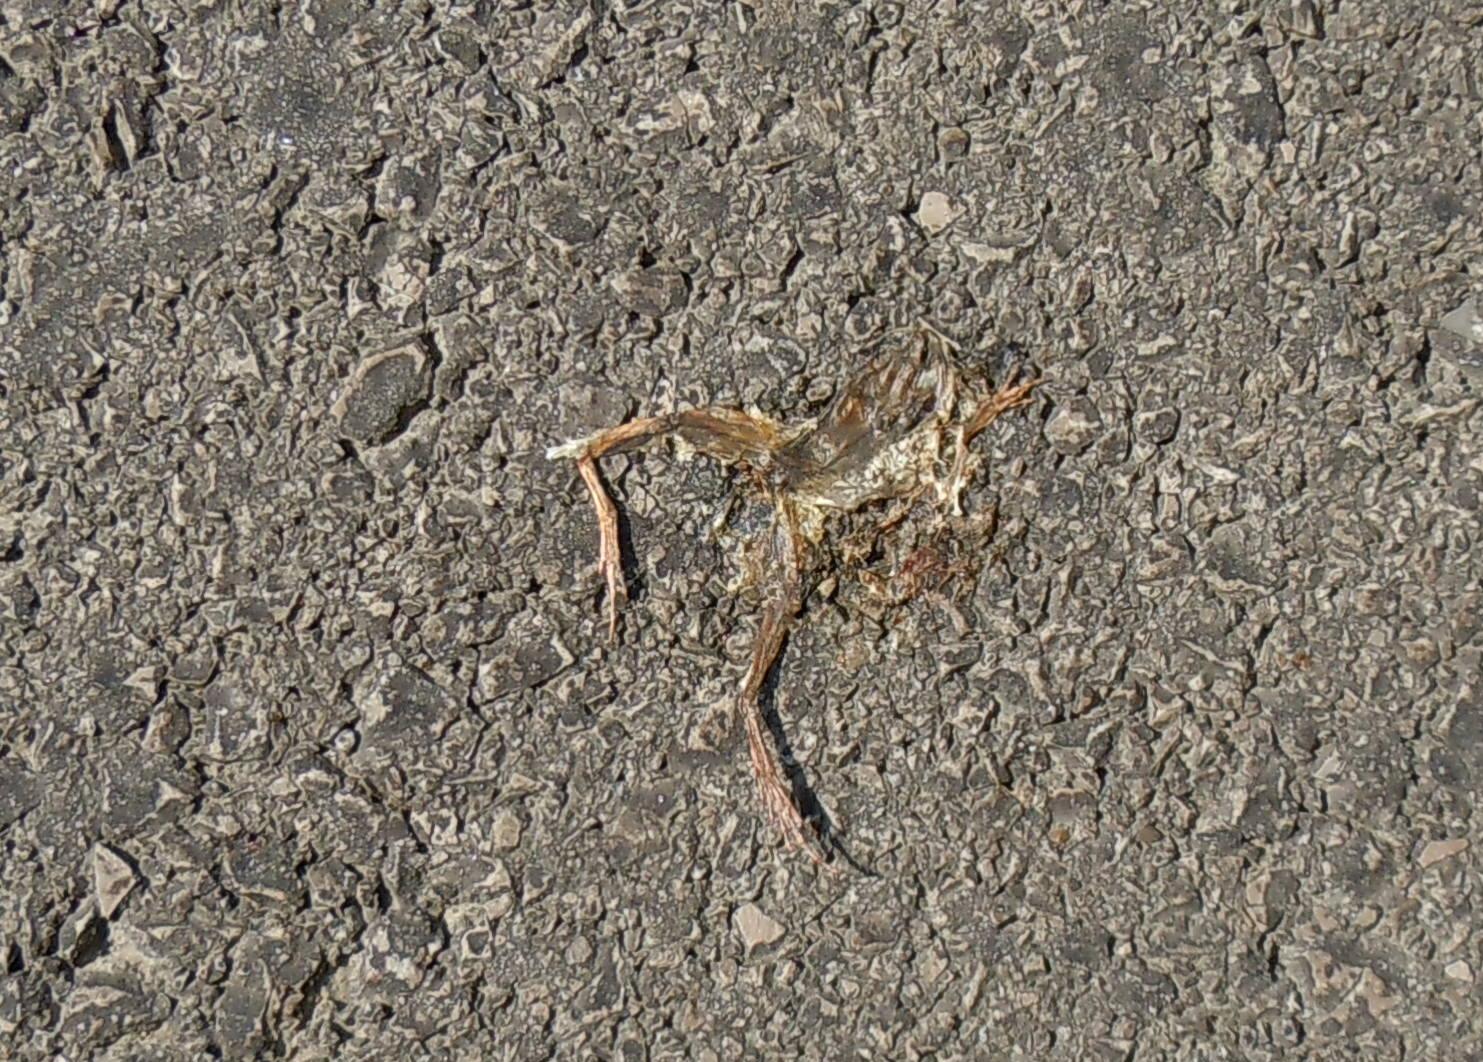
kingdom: Animalia
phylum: Chordata
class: Amphibia
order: Anura
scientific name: Anura
